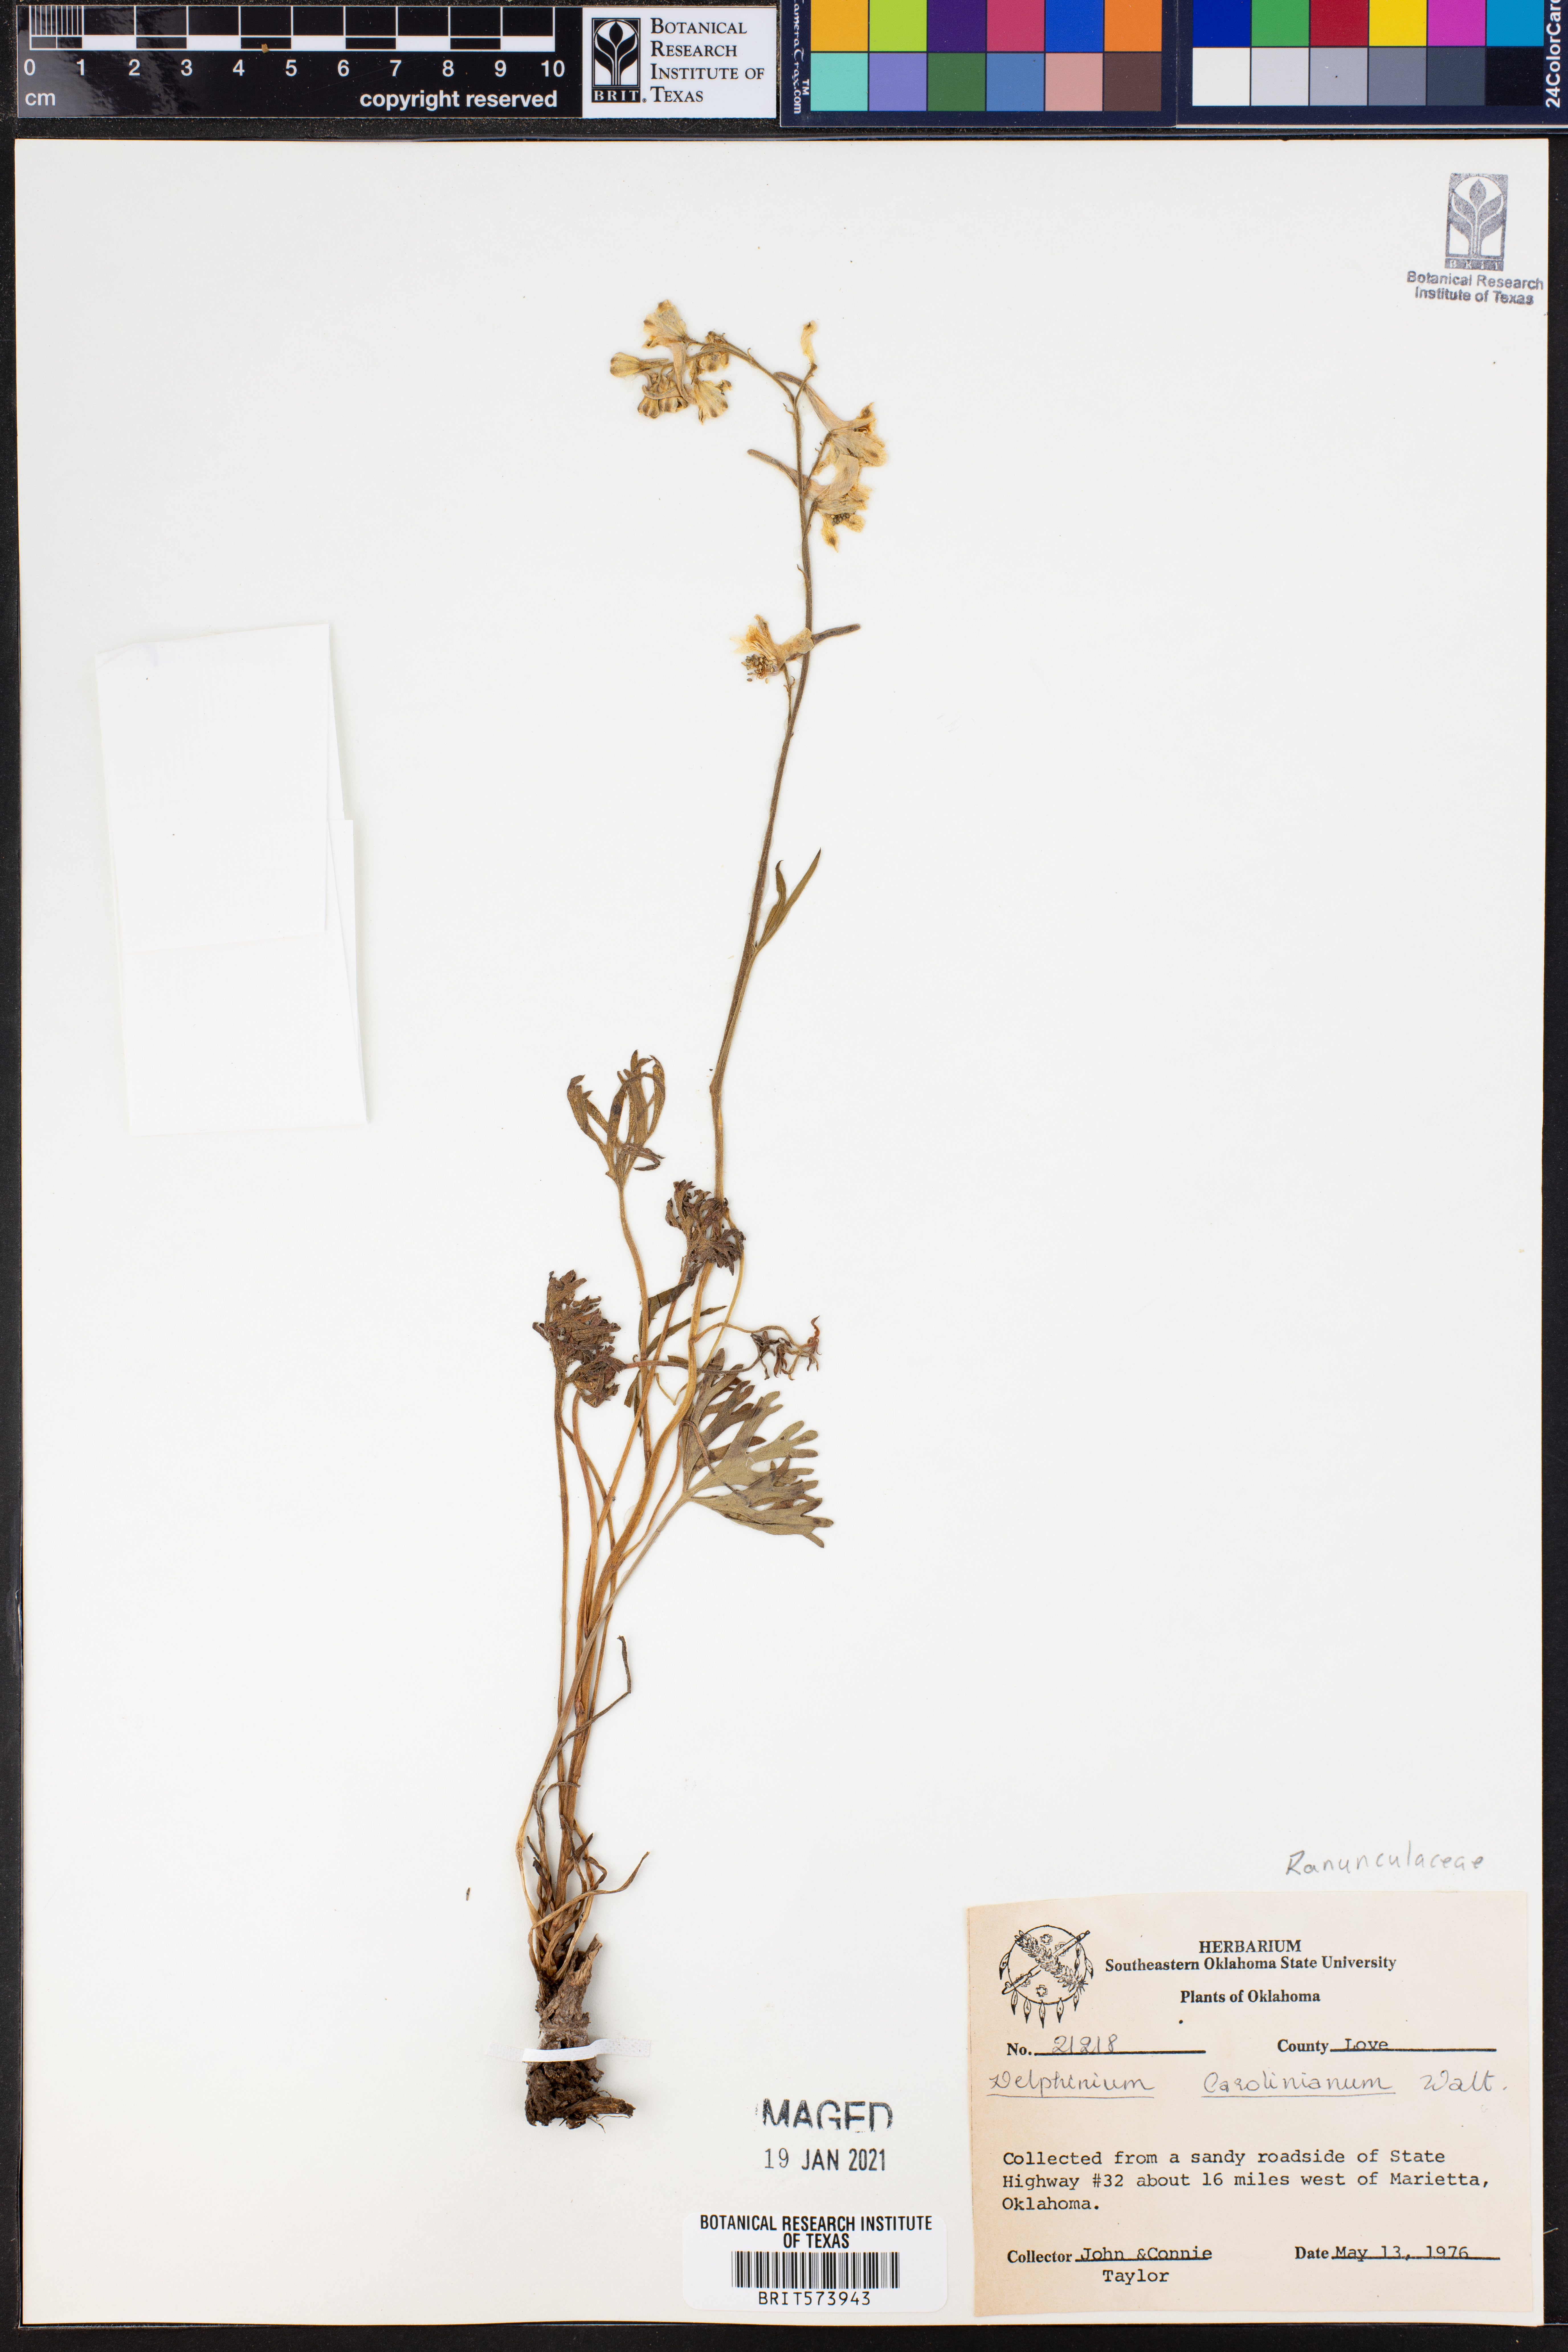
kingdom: Plantae
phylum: Tracheophyta
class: Magnoliopsida
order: Ranunculales
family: Ranunculaceae
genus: Delphinium
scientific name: Delphinium carolinianum
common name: Carolina larkspur
